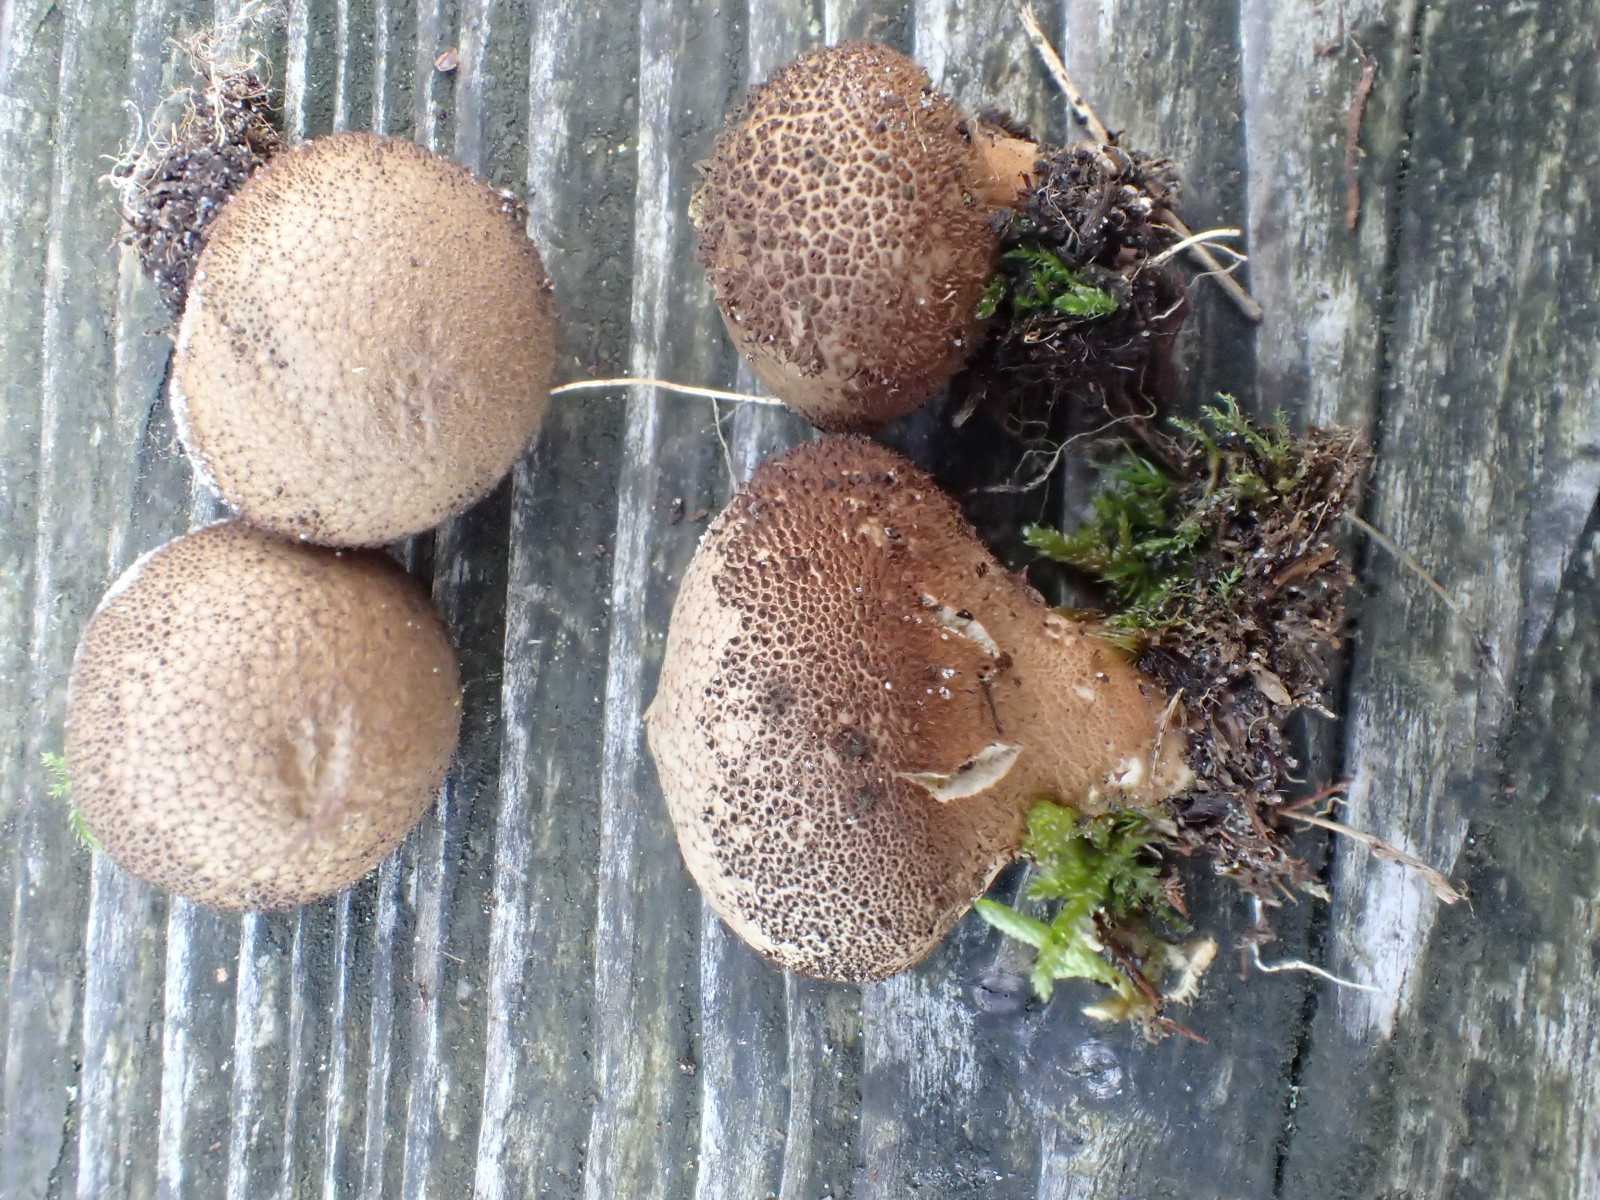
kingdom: Fungi
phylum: Basidiomycota
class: Agaricomycetes
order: Agaricales
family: Lycoperdaceae
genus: Lycoperdon
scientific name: Lycoperdon nigrescens
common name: sortagtig støvbold
